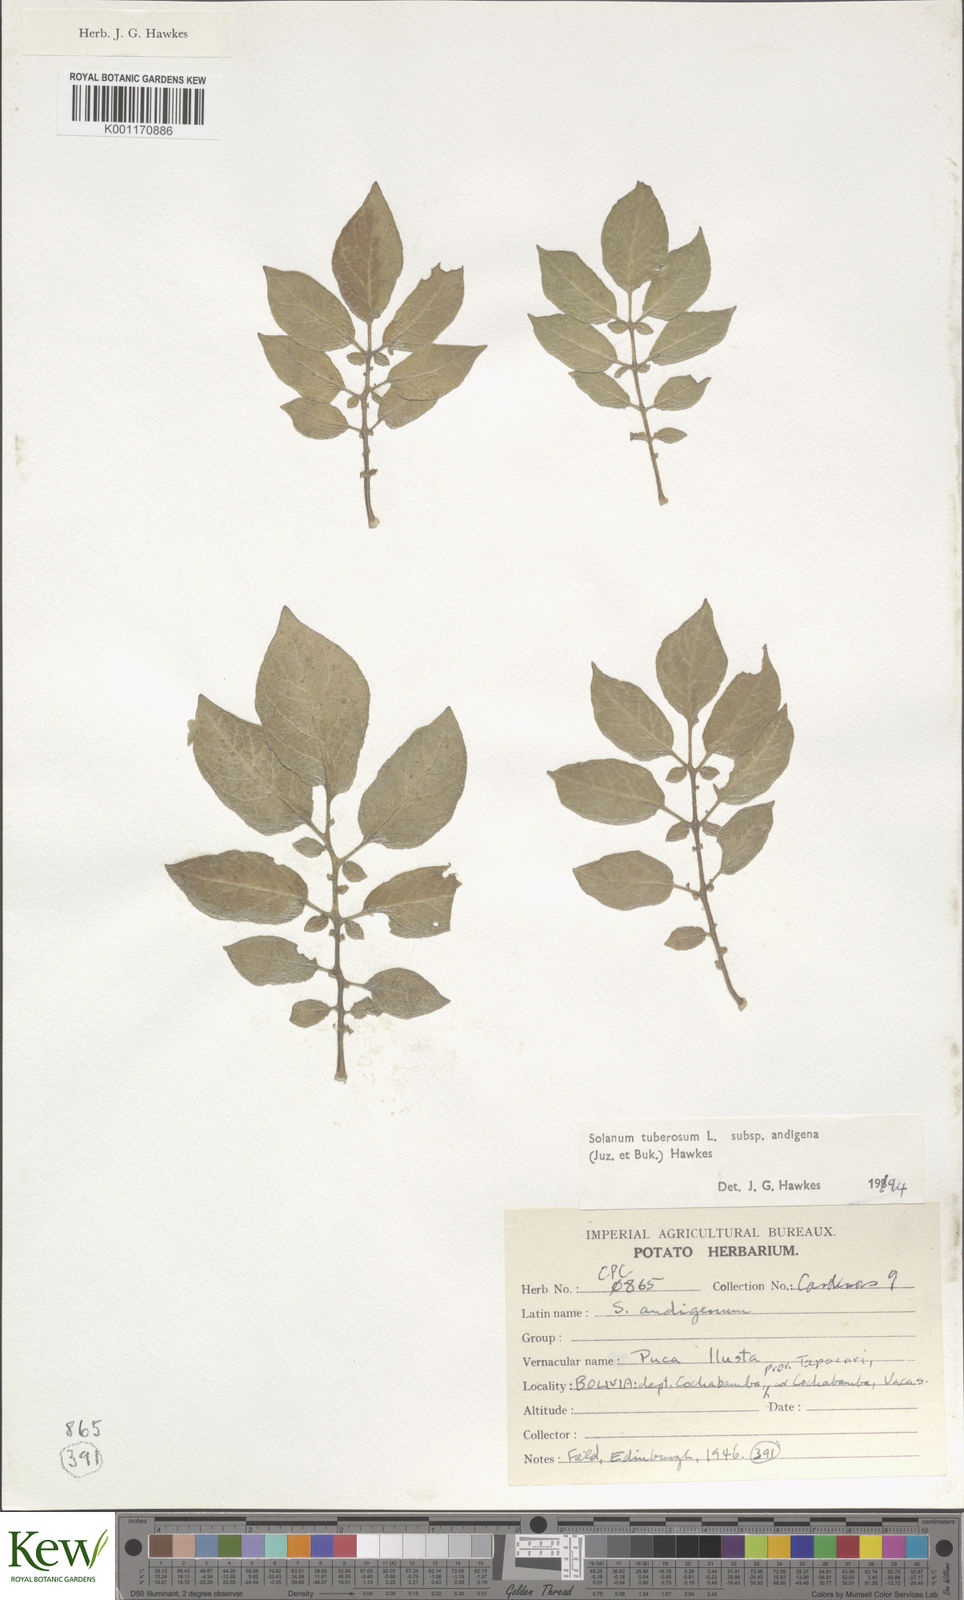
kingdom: Plantae
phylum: Tracheophyta
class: Magnoliopsida
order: Solanales
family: Solanaceae
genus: Solanum
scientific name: Solanum tuberosum
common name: Potato
